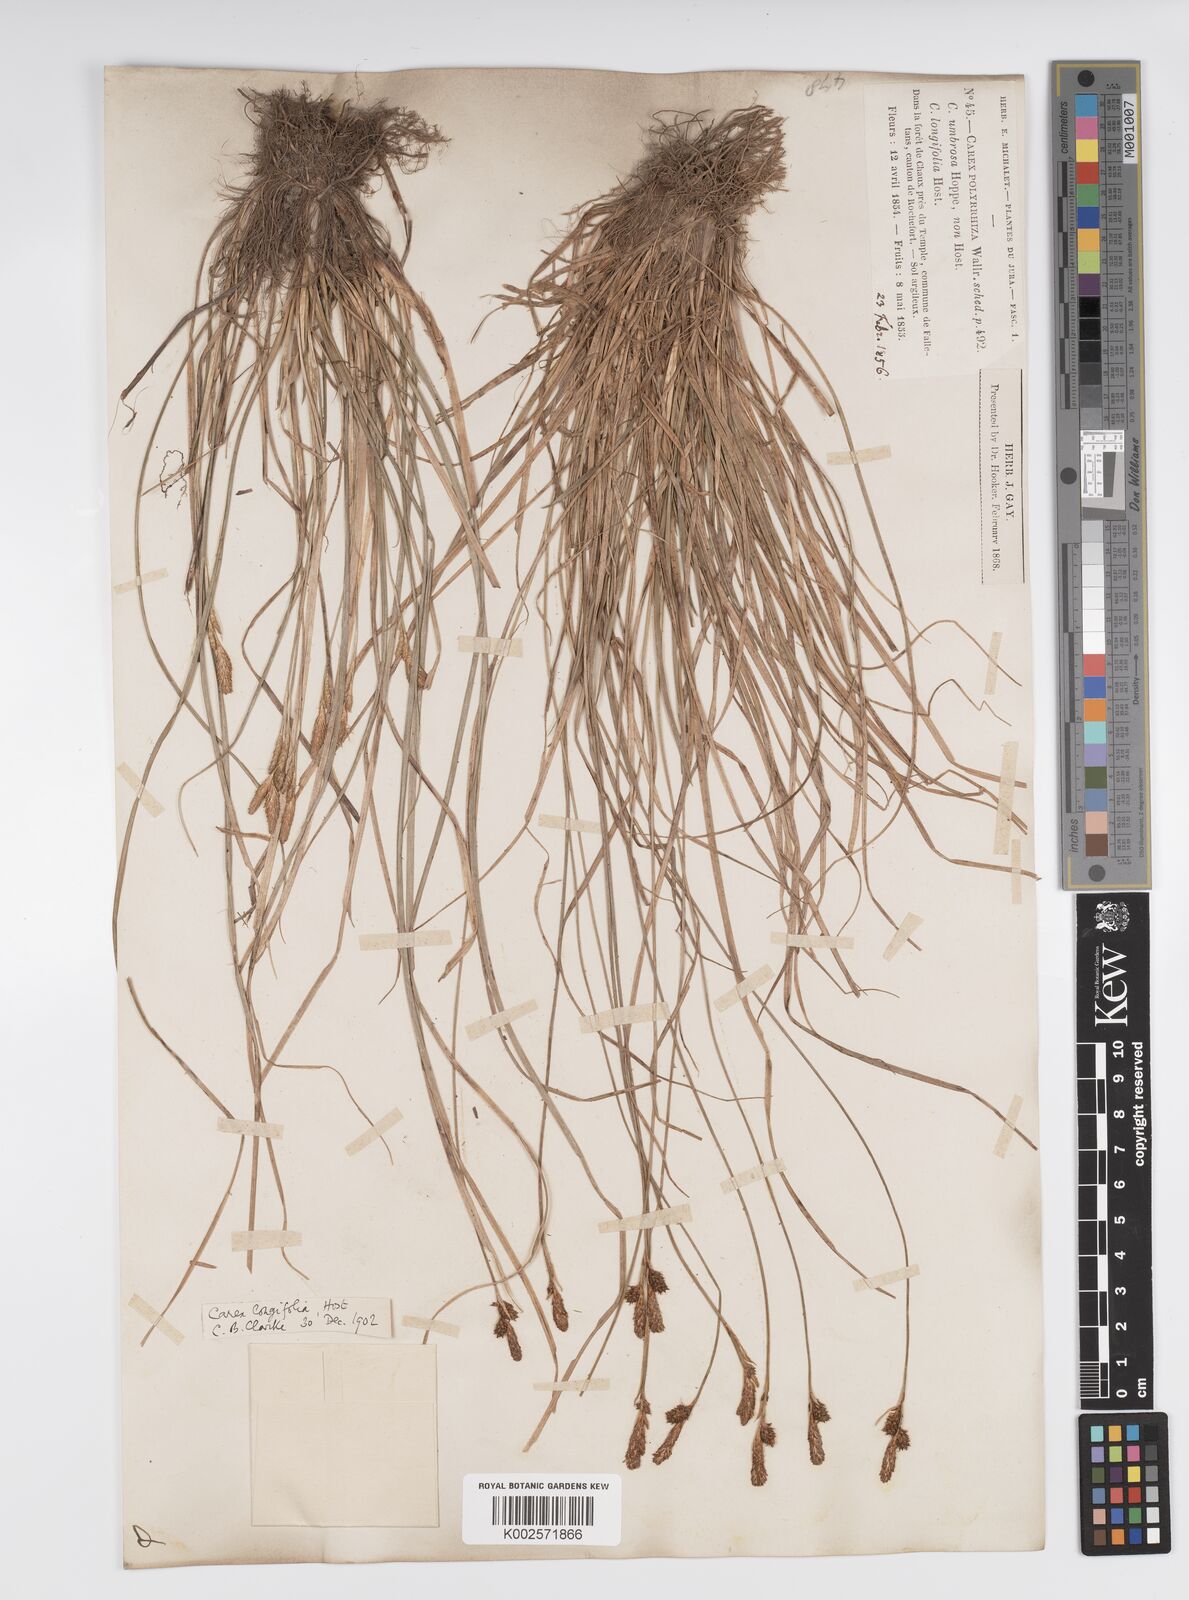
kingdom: Plantae
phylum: Tracheophyta
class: Liliopsida
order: Poales
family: Cyperaceae
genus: Carex
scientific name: Carex umbrosa
